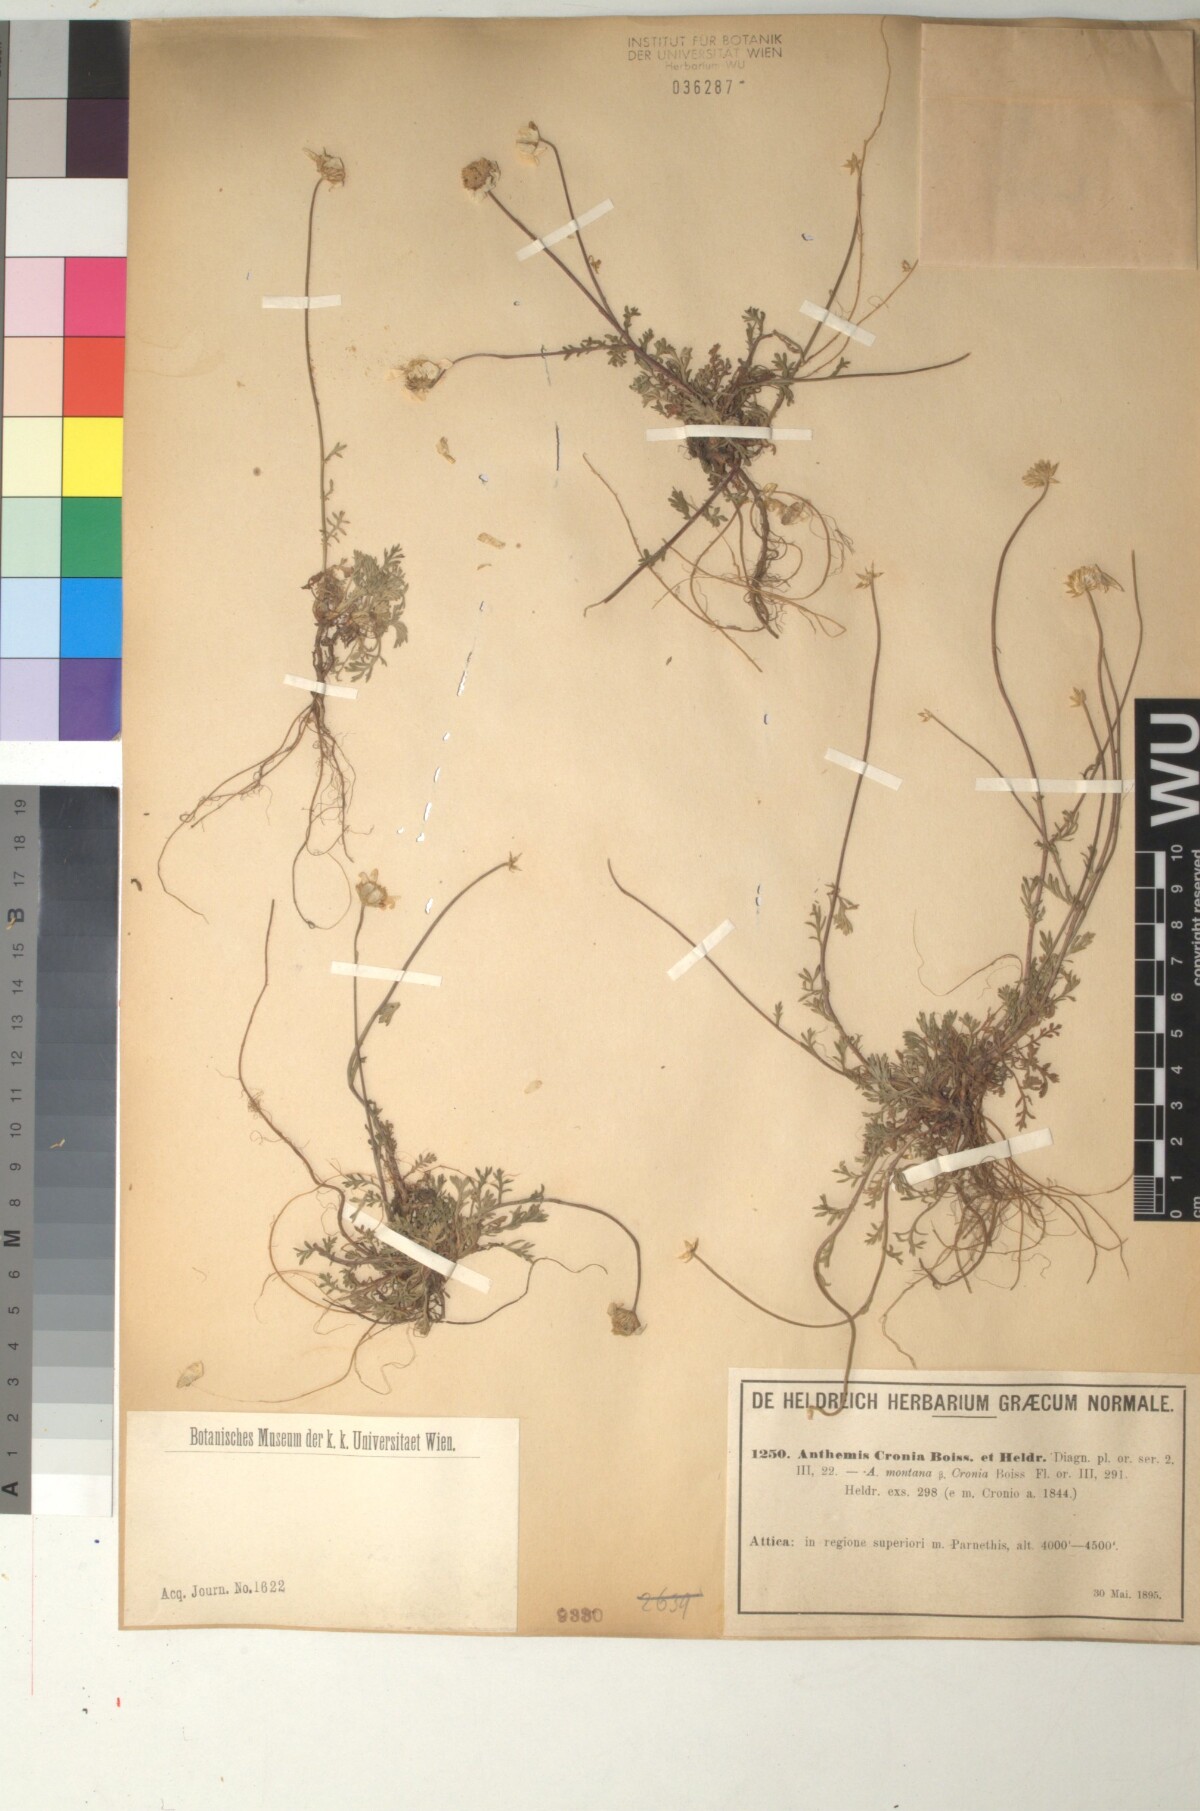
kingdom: Plantae
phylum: Tracheophyta
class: Magnoliopsida
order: Asterales
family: Asteraceae
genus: Anthemis
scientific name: Anthemis cretica
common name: Mountain dog-daisy
